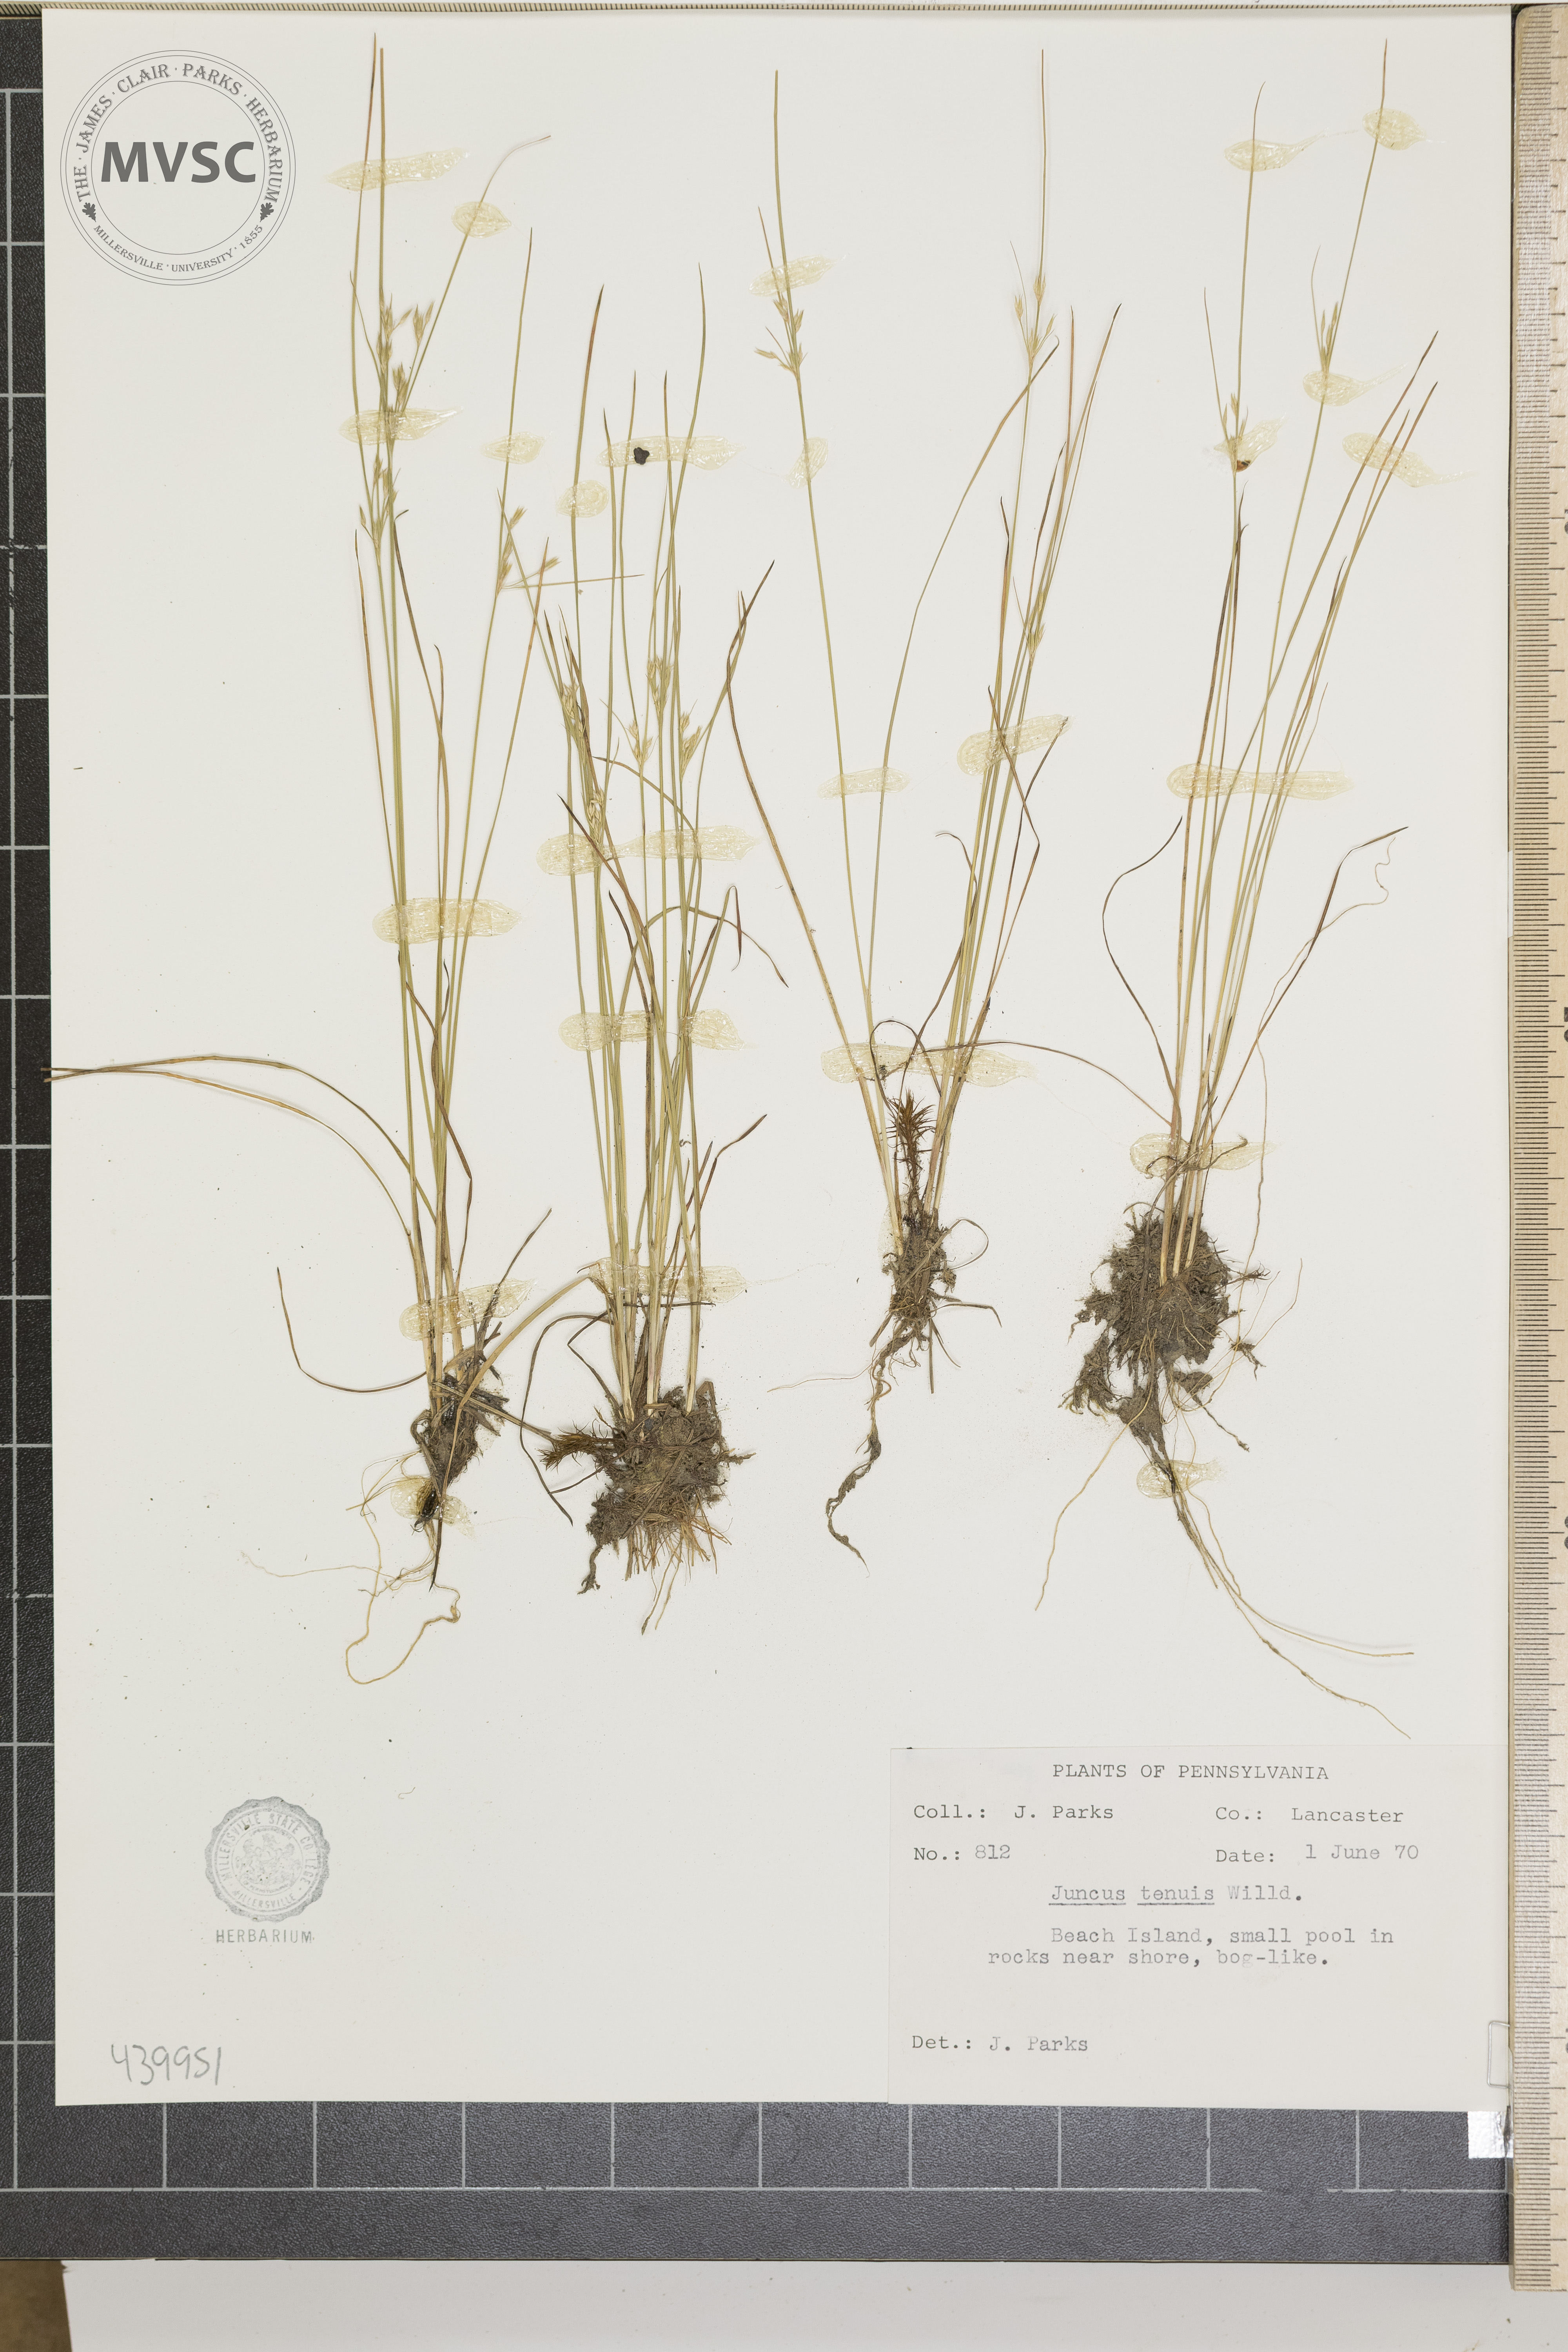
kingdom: Plantae
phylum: Tracheophyta
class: Liliopsida
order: Poales
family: Juncaceae
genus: Juncus
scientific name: Juncus tenuis
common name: Slender rush
